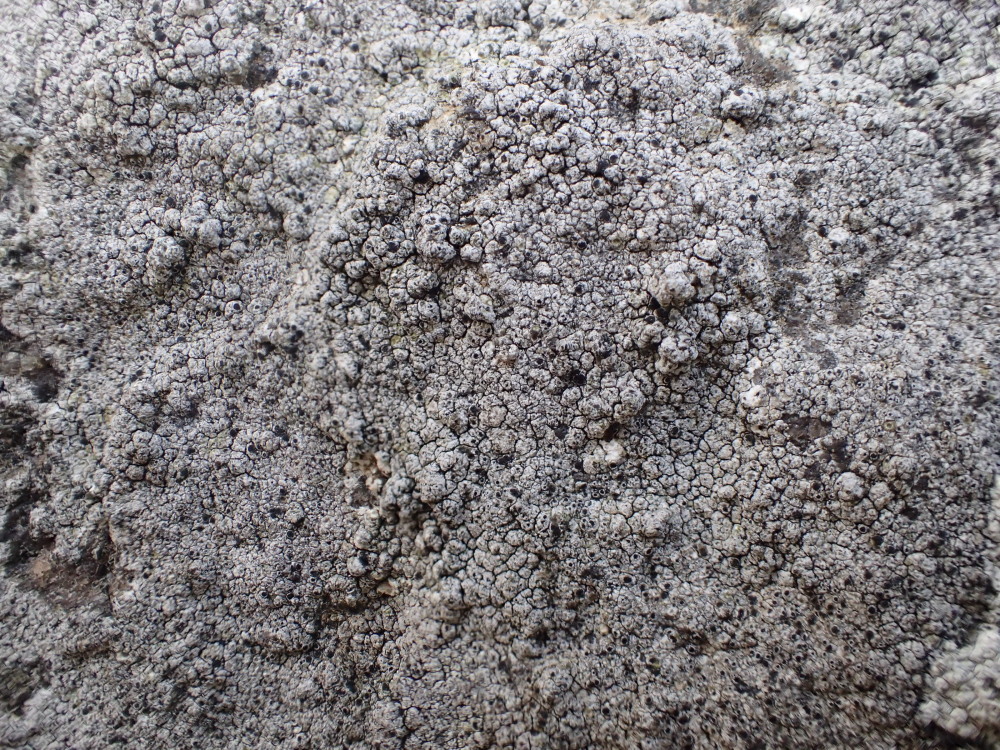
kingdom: Fungi
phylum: Ascomycota
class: Lecanoromycetes
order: Pertusariales
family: Megasporaceae
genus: Circinaria
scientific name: Circinaria caesiocinerea
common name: fuglestens-hulskivelav
